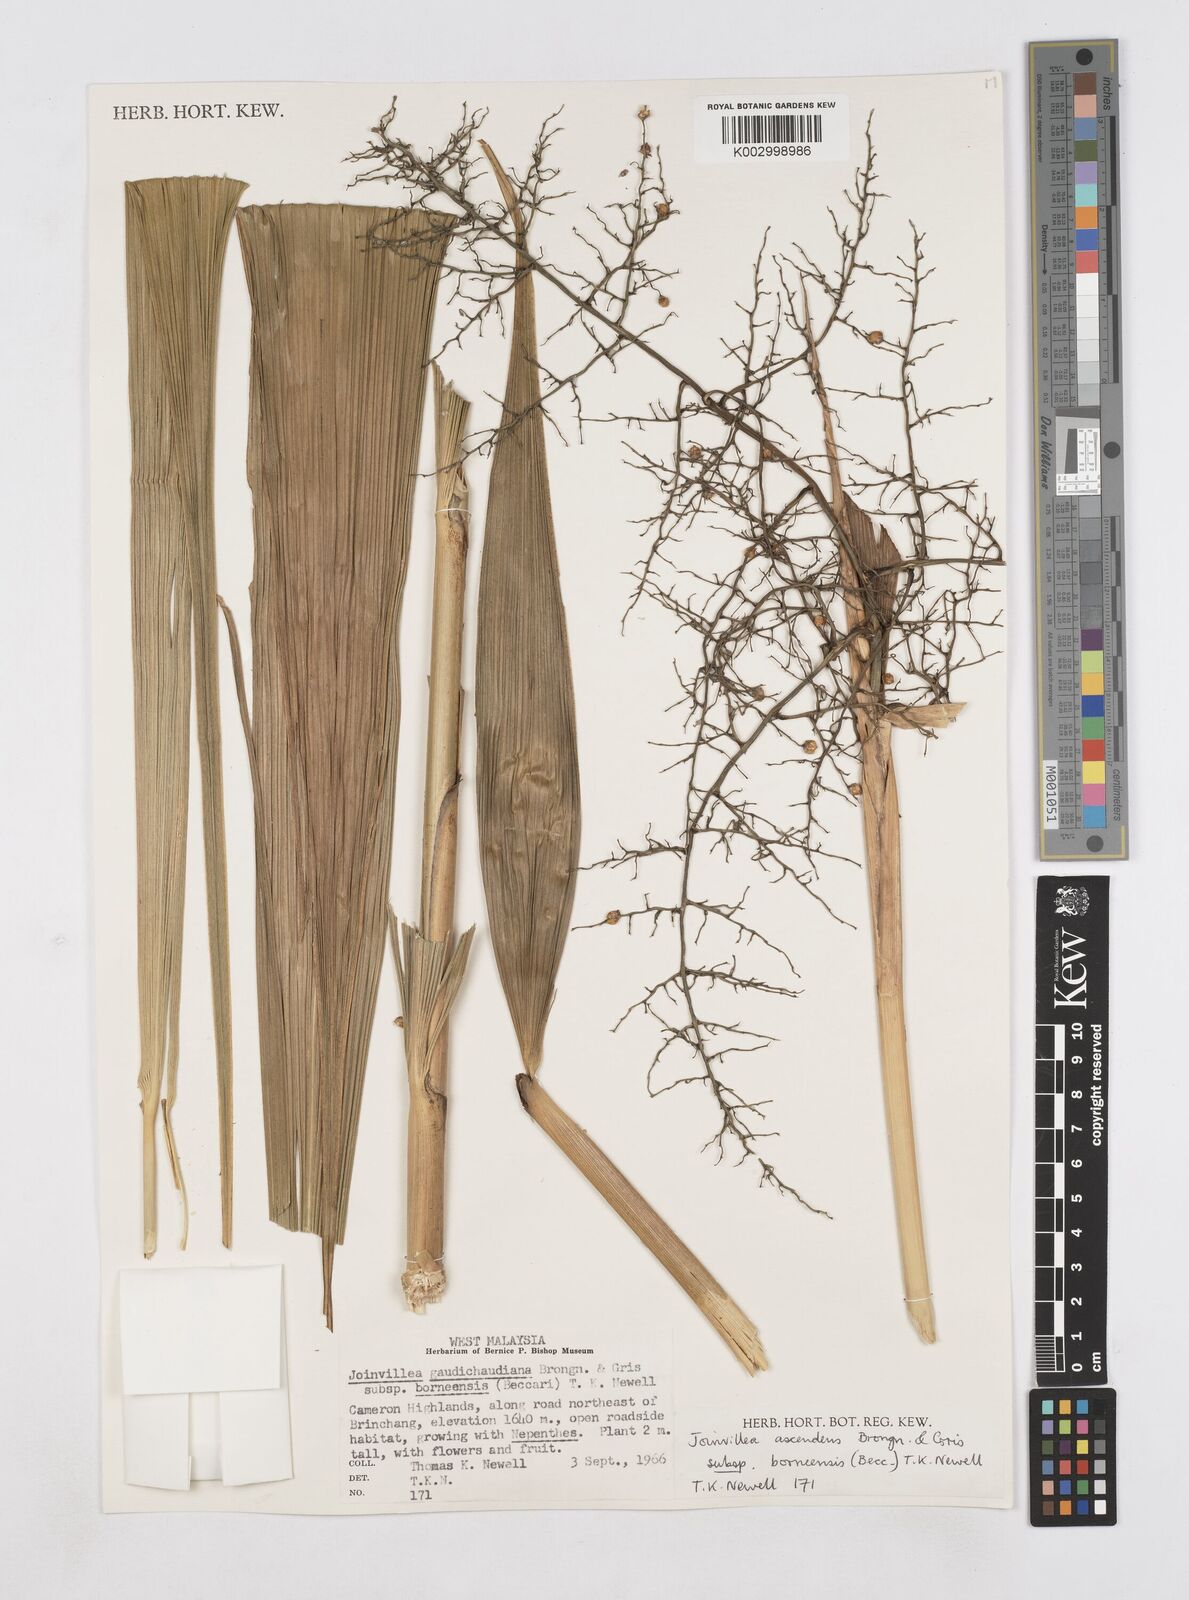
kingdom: Plantae
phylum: Tracheophyta
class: Liliopsida
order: Poales
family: Joinvilleaceae
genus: Joinvillea
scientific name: Joinvillea borneensis
